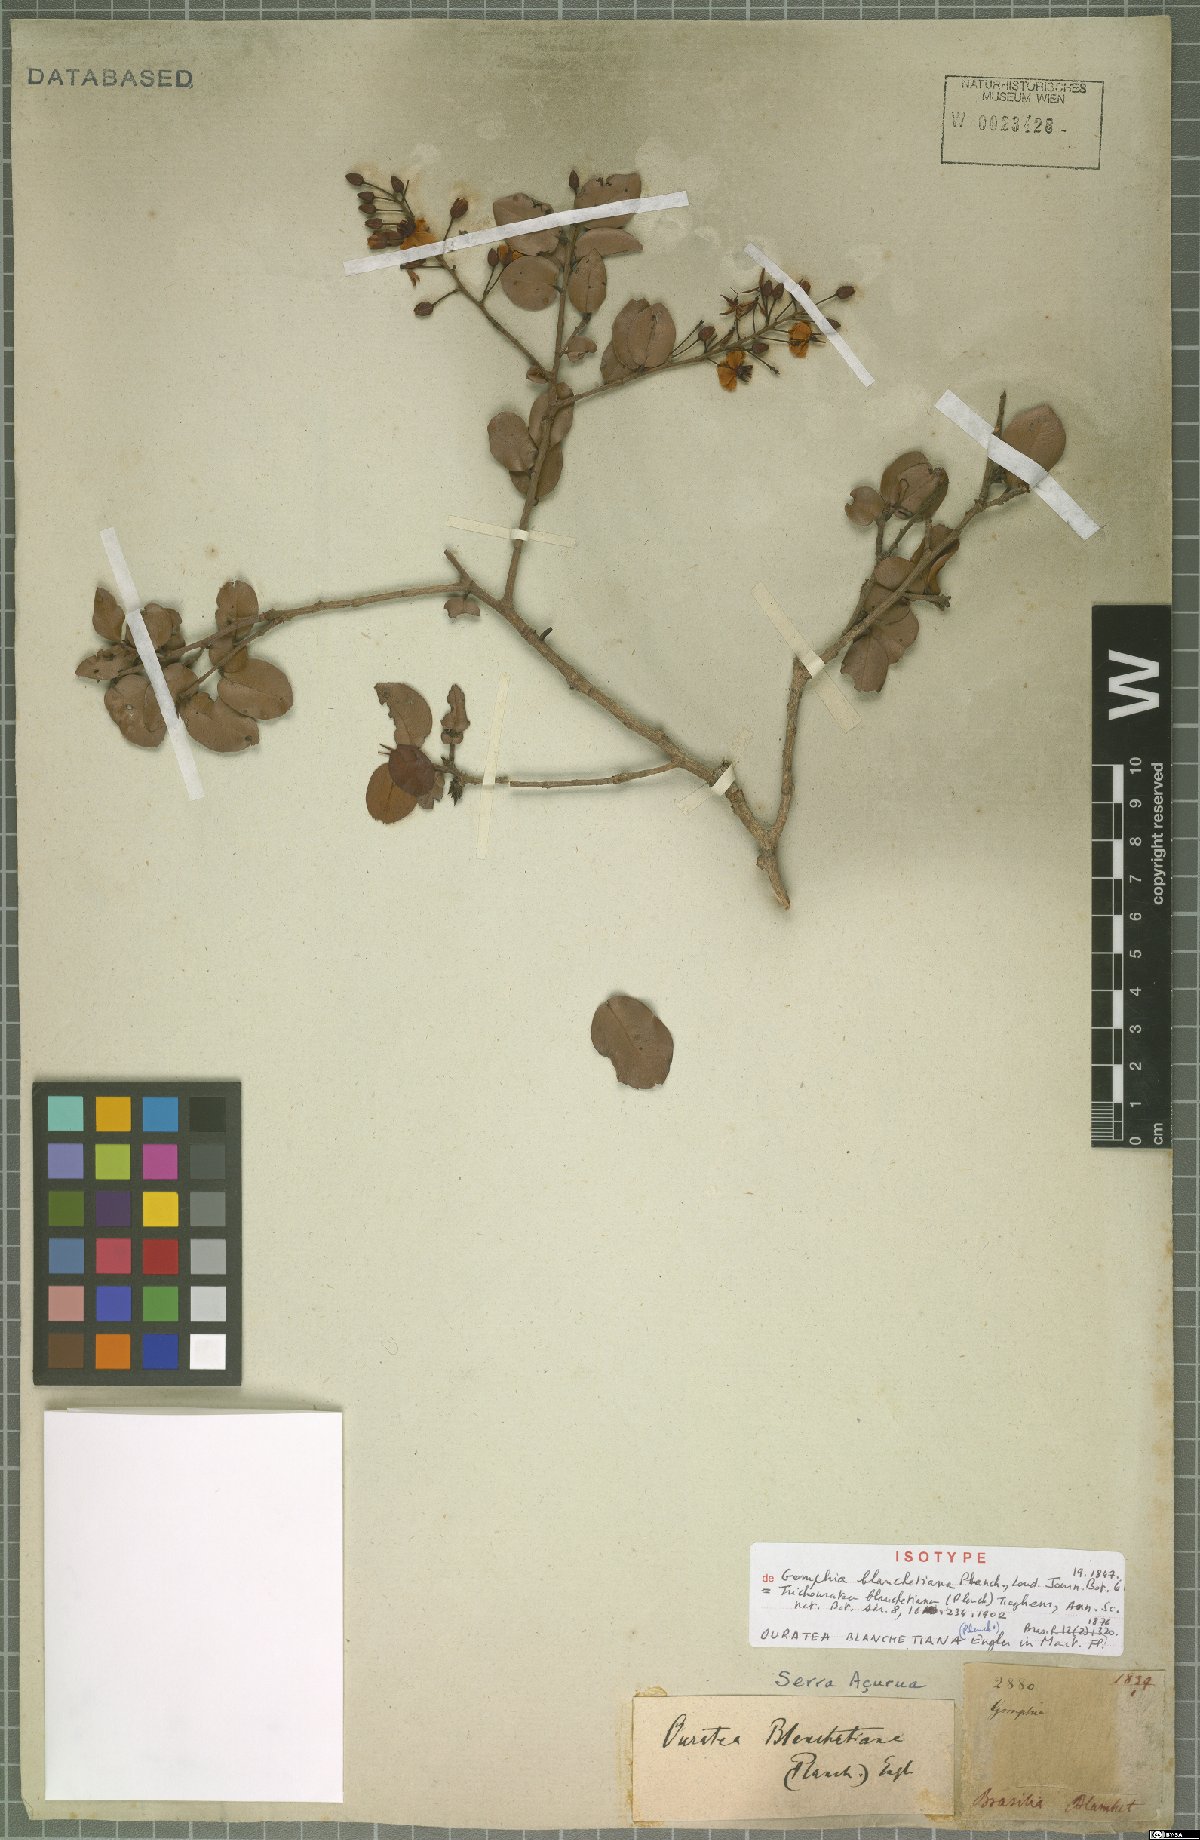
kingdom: Plantae
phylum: Tracheophyta
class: Magnoliopsida
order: Malpighiales
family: Ochnaceae
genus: Ouratea
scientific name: Ouratea blanchetiana
